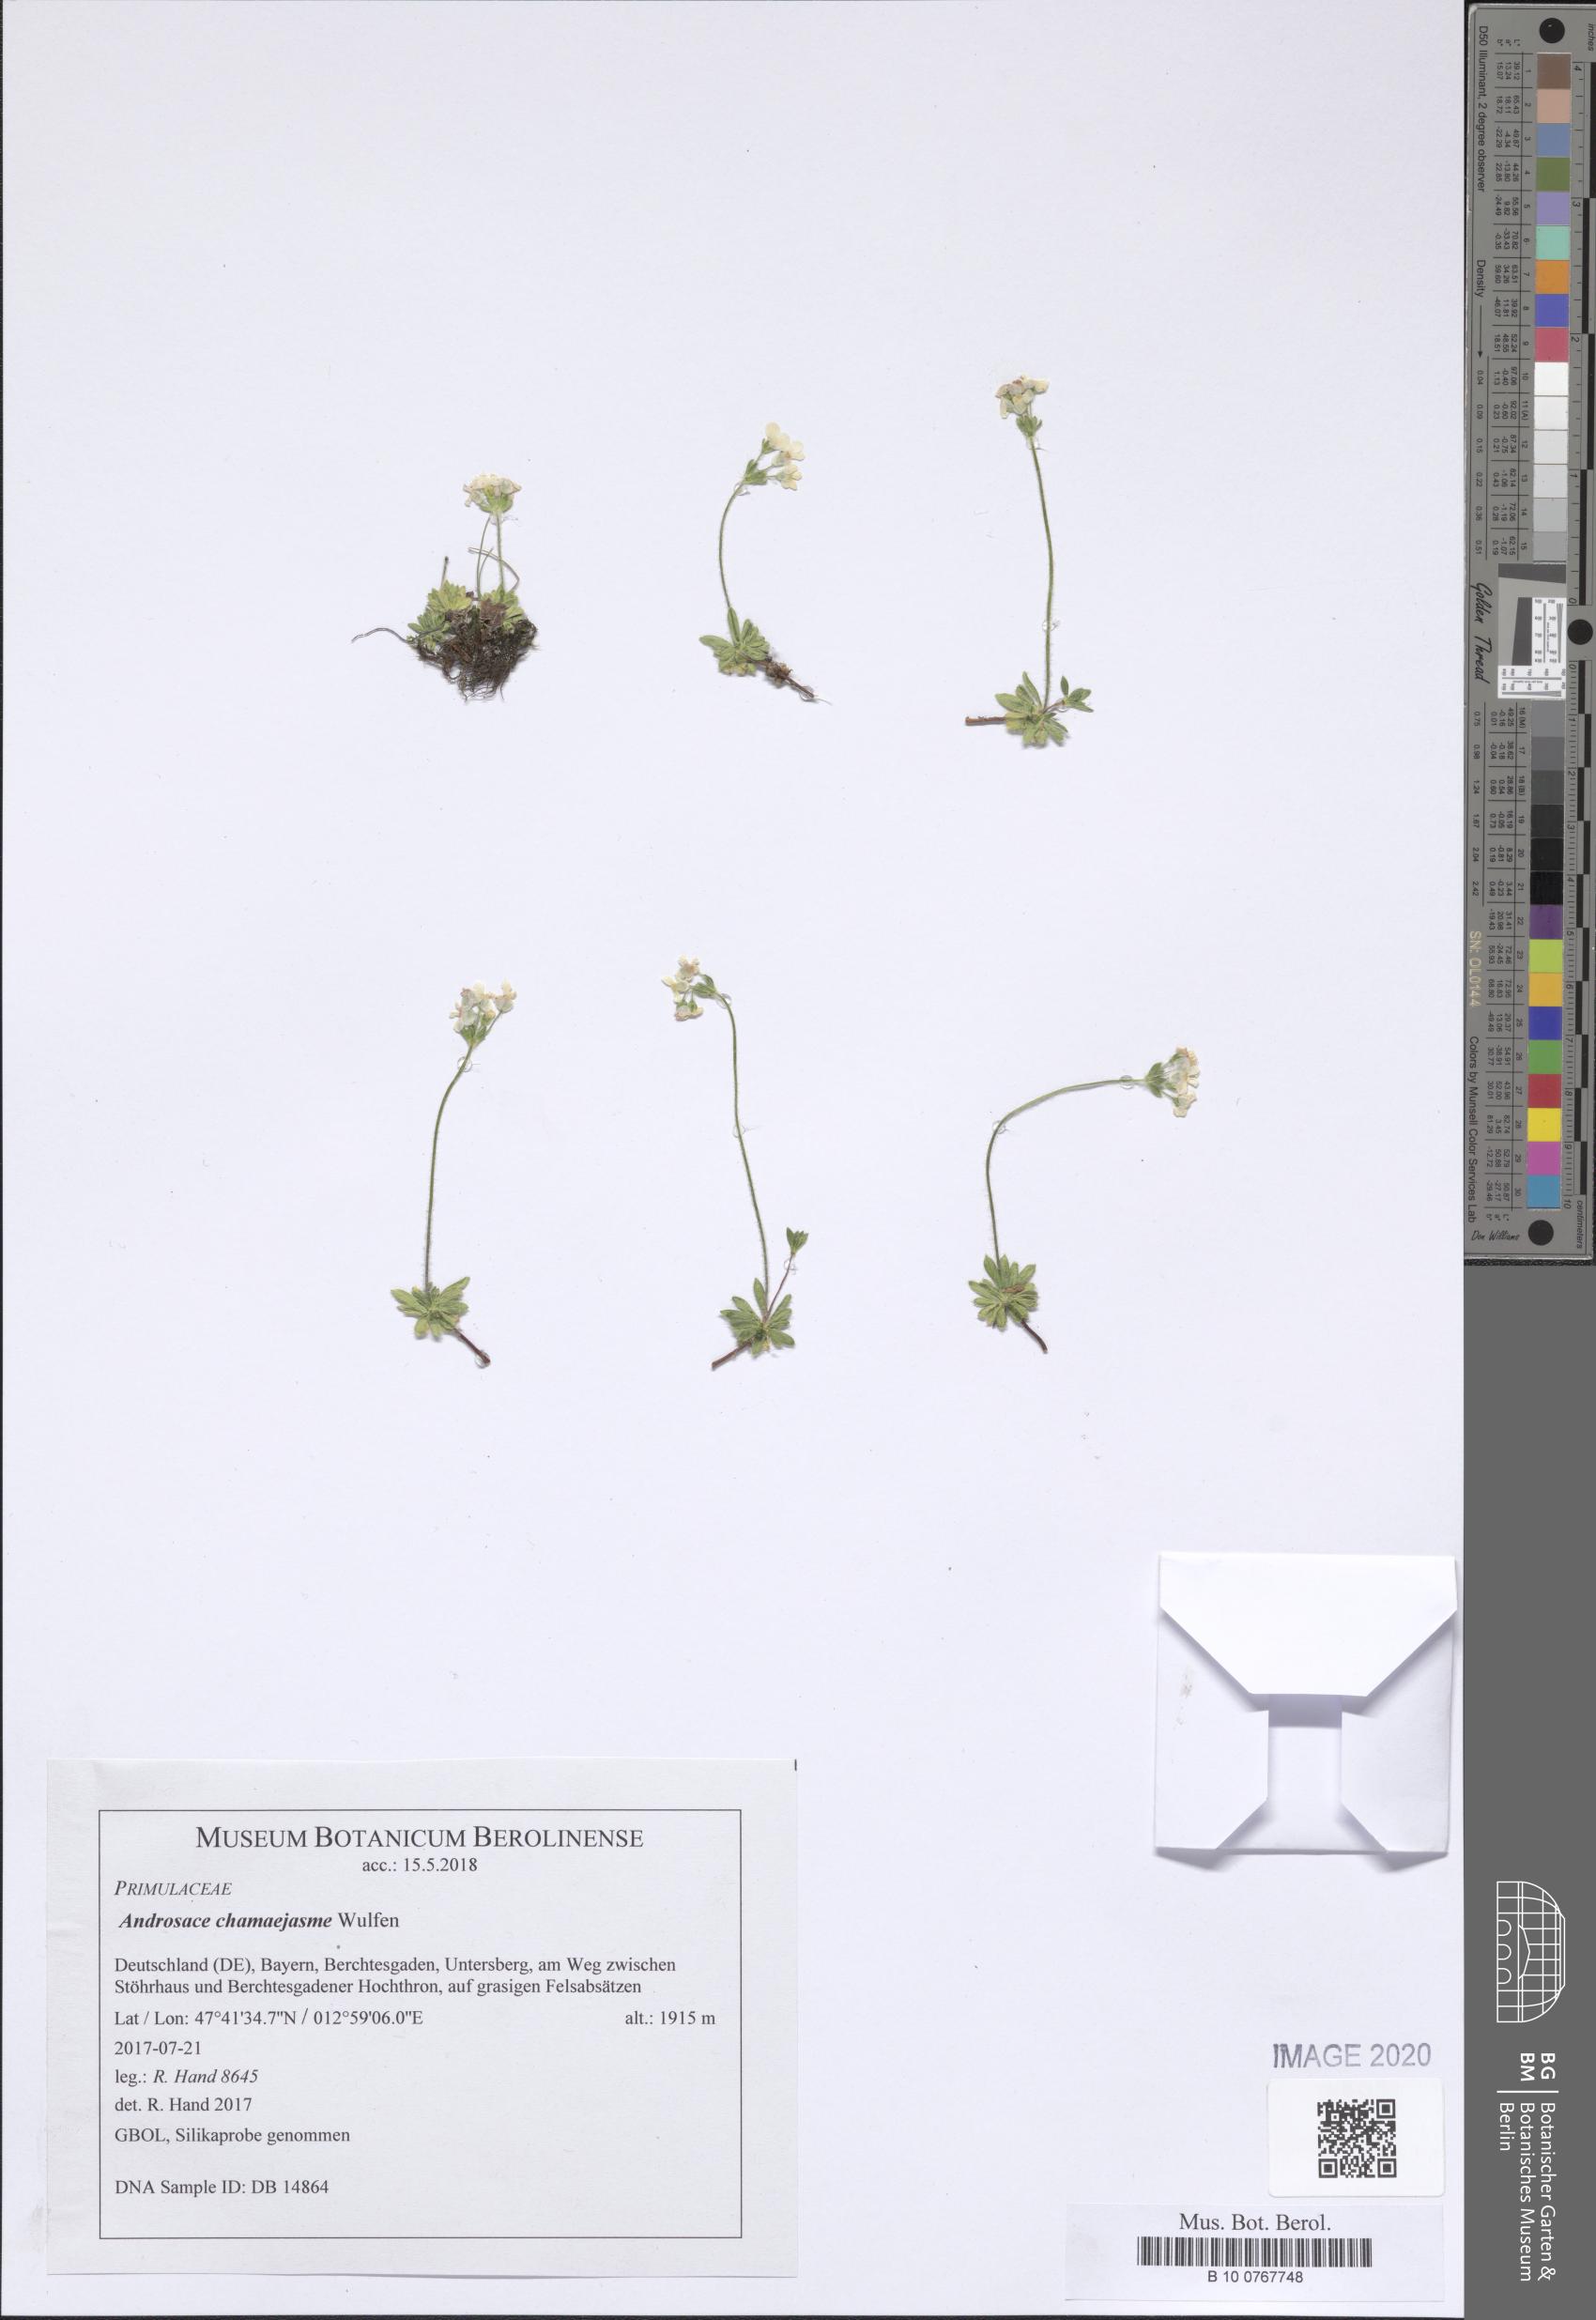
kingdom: Plantae
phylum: Tracheophyta
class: Magnoliopsida
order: Ericales
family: Primulaceae
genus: Androsace
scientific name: Androsace chamaejasme
